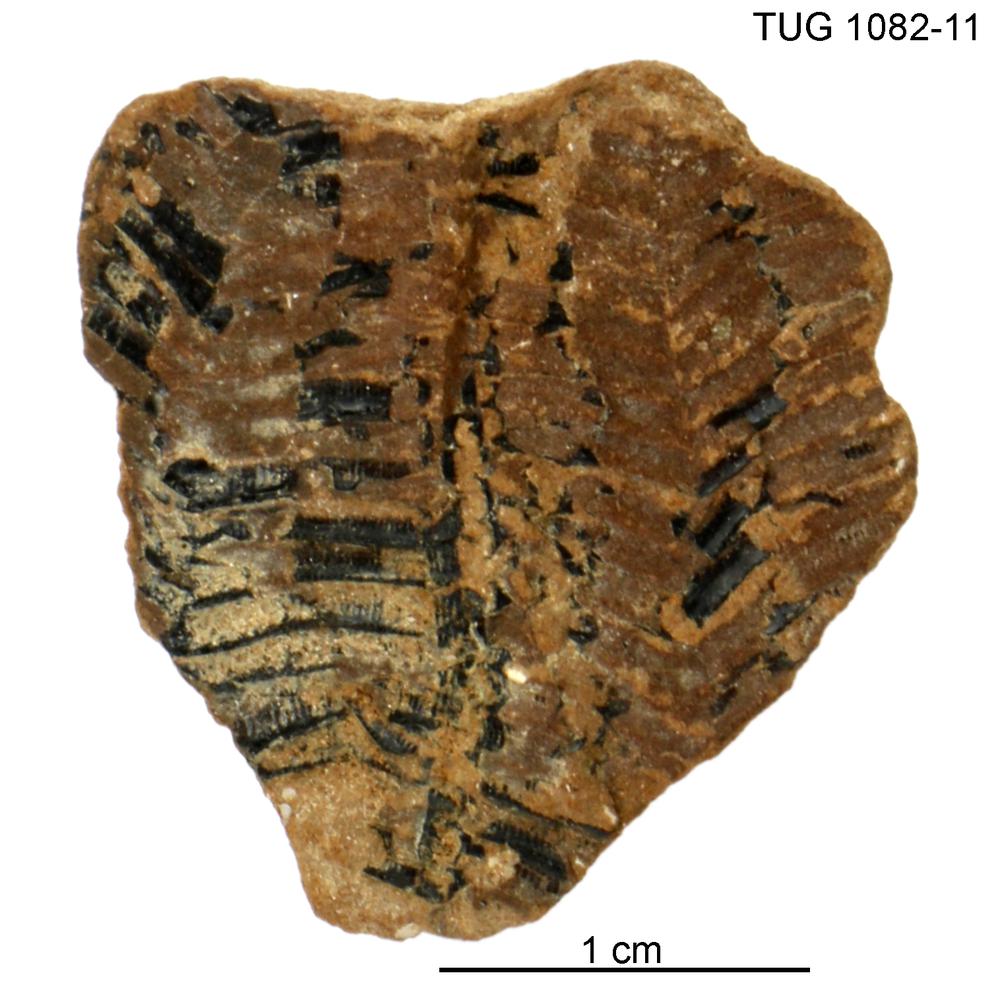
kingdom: Animalia
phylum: Cnidaria
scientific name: Cnidaria
